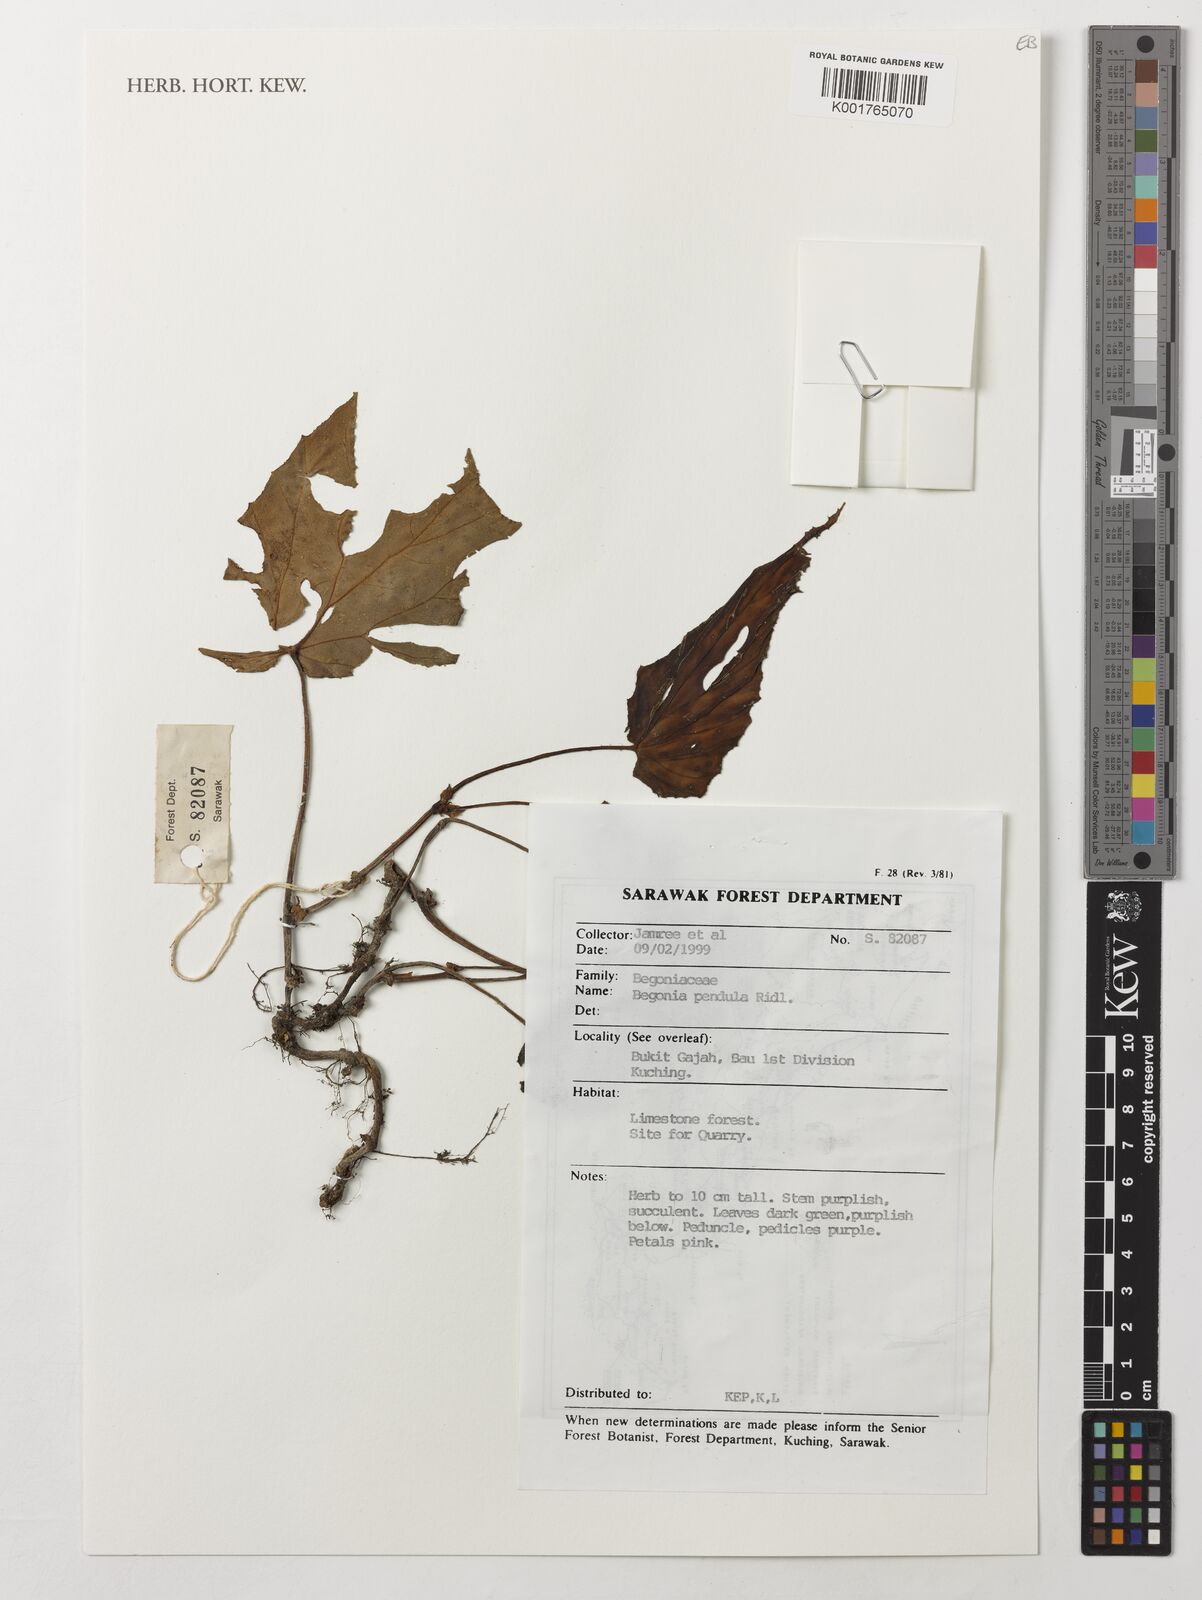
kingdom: Plantae
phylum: Tracheophyta
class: Magnoliopsida
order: Cucurbitales
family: Begoniaceae
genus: Begonia
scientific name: Begonia pendula
